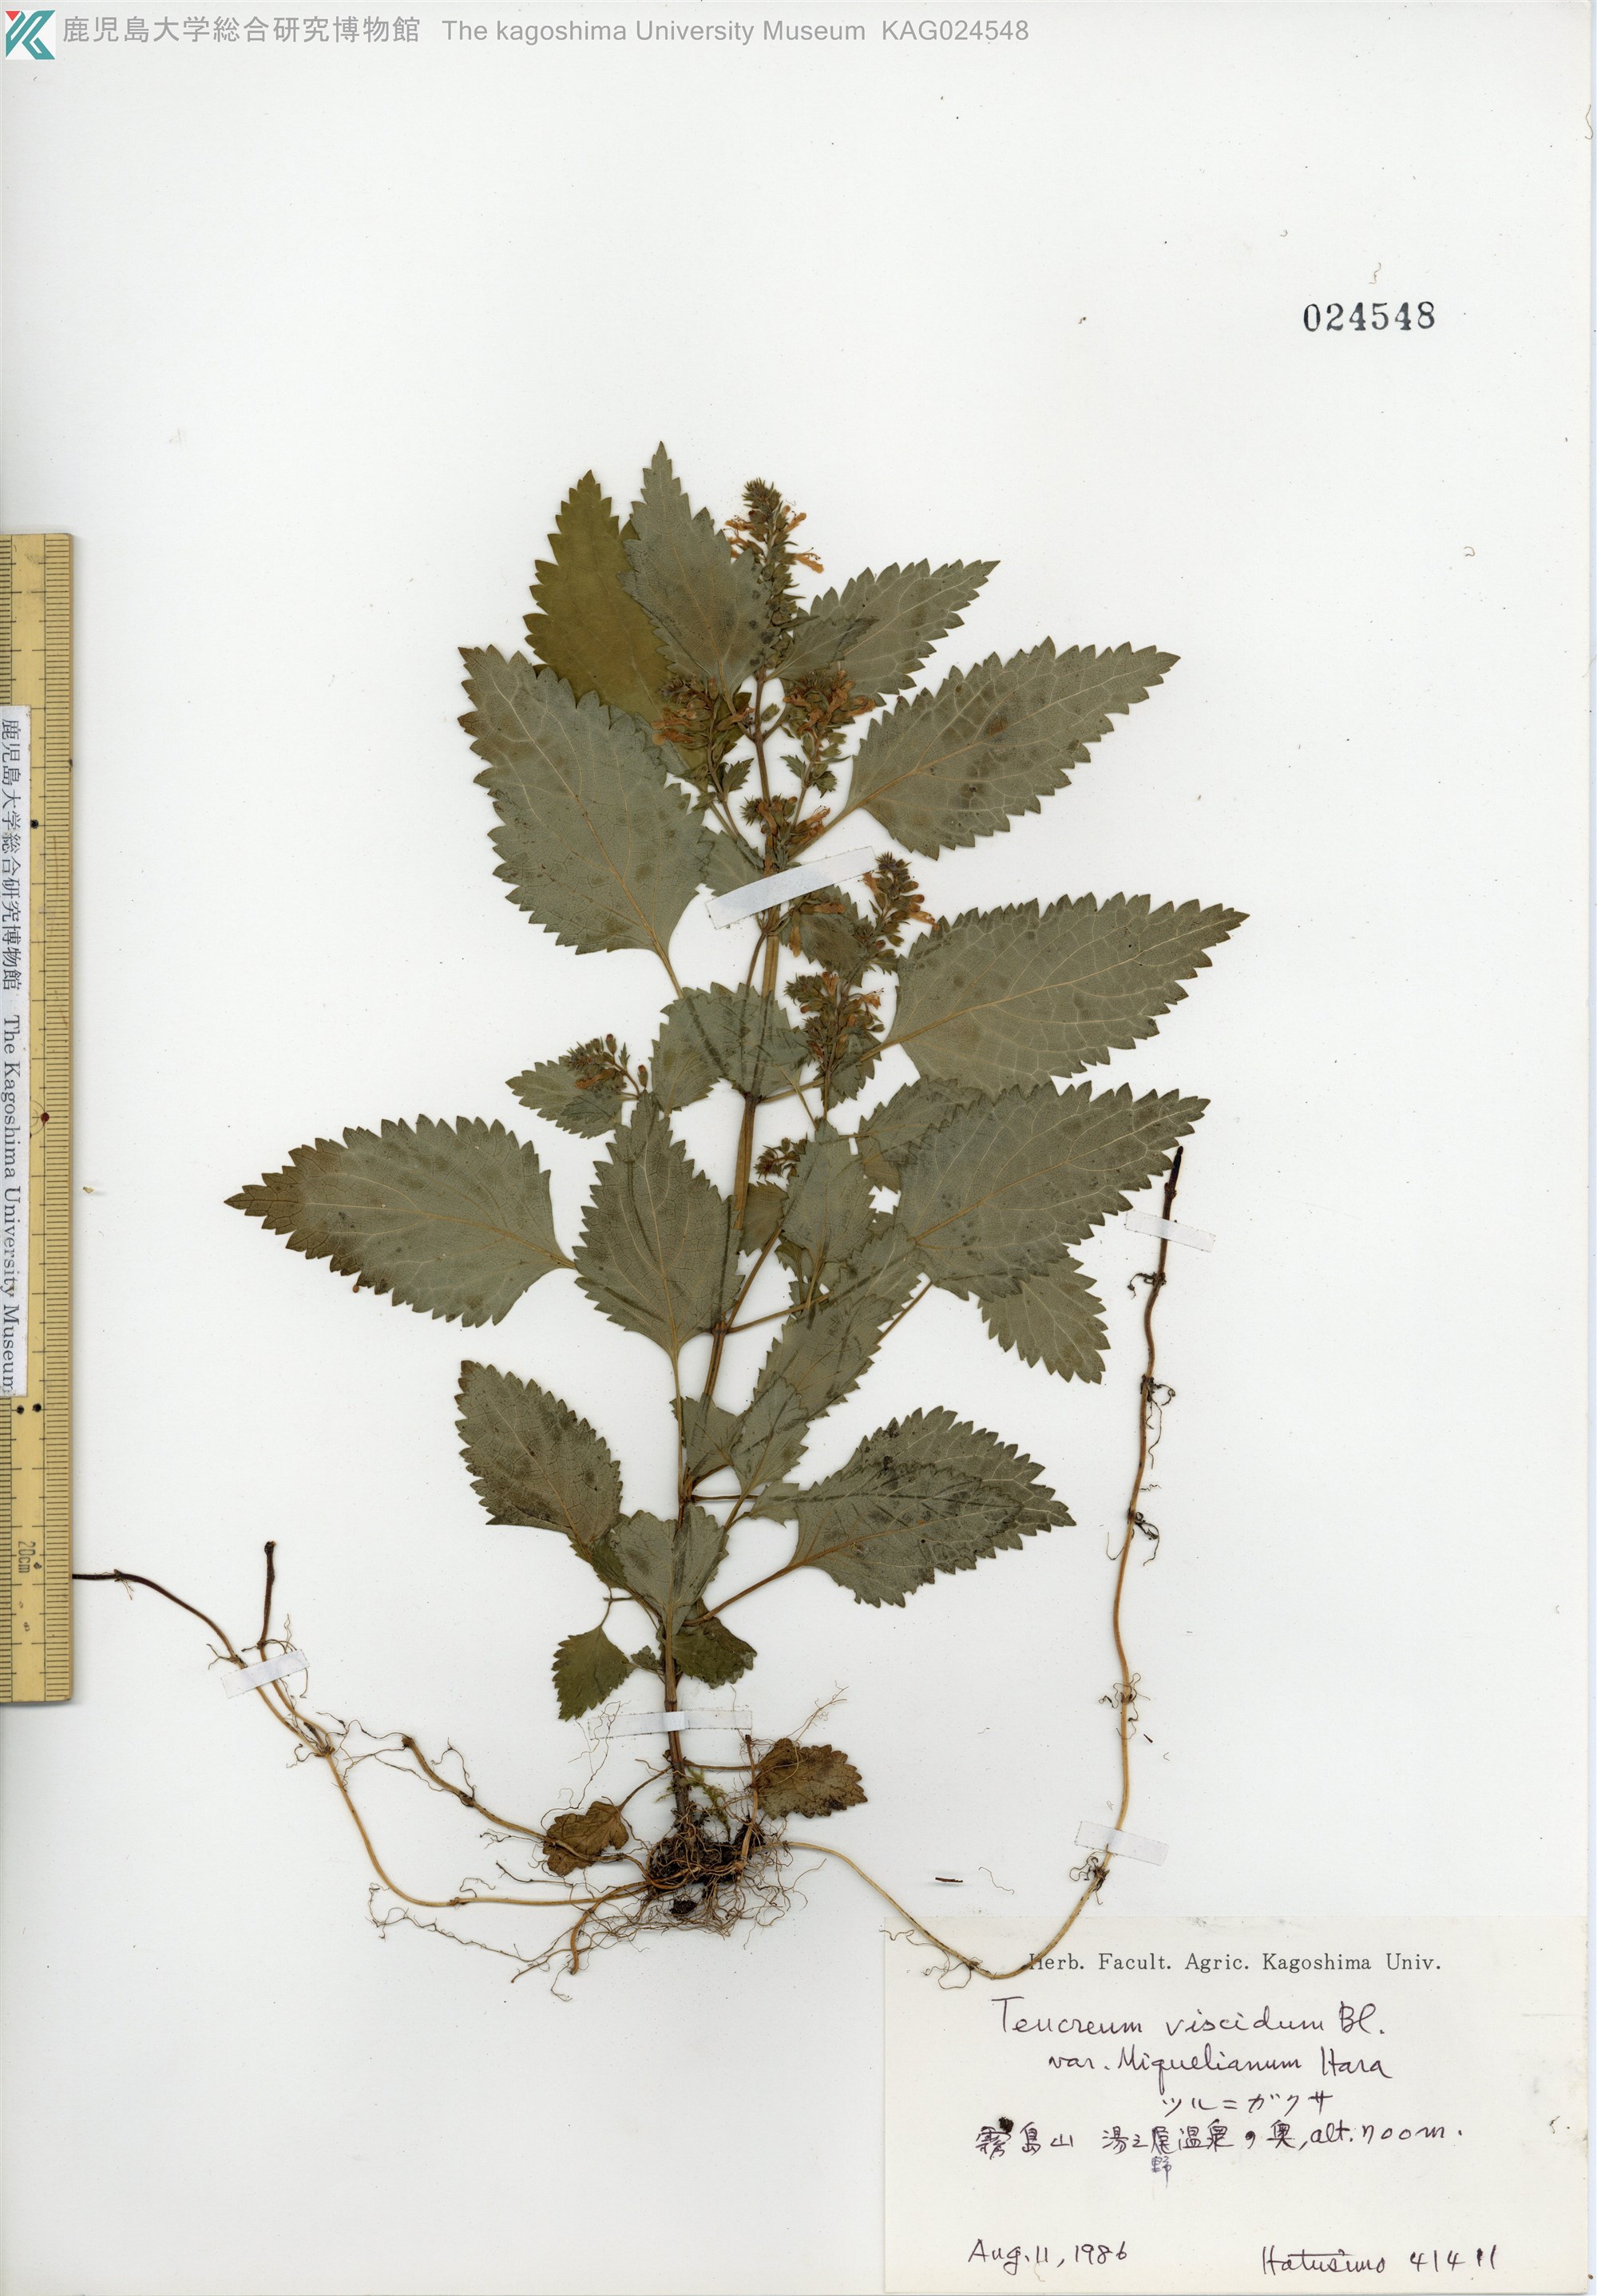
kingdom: Plantae
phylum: Tracheophyta
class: Magnoliopsida
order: Lamiales
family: Lamiaceae
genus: Teucrium
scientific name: Teucrium viscidum
